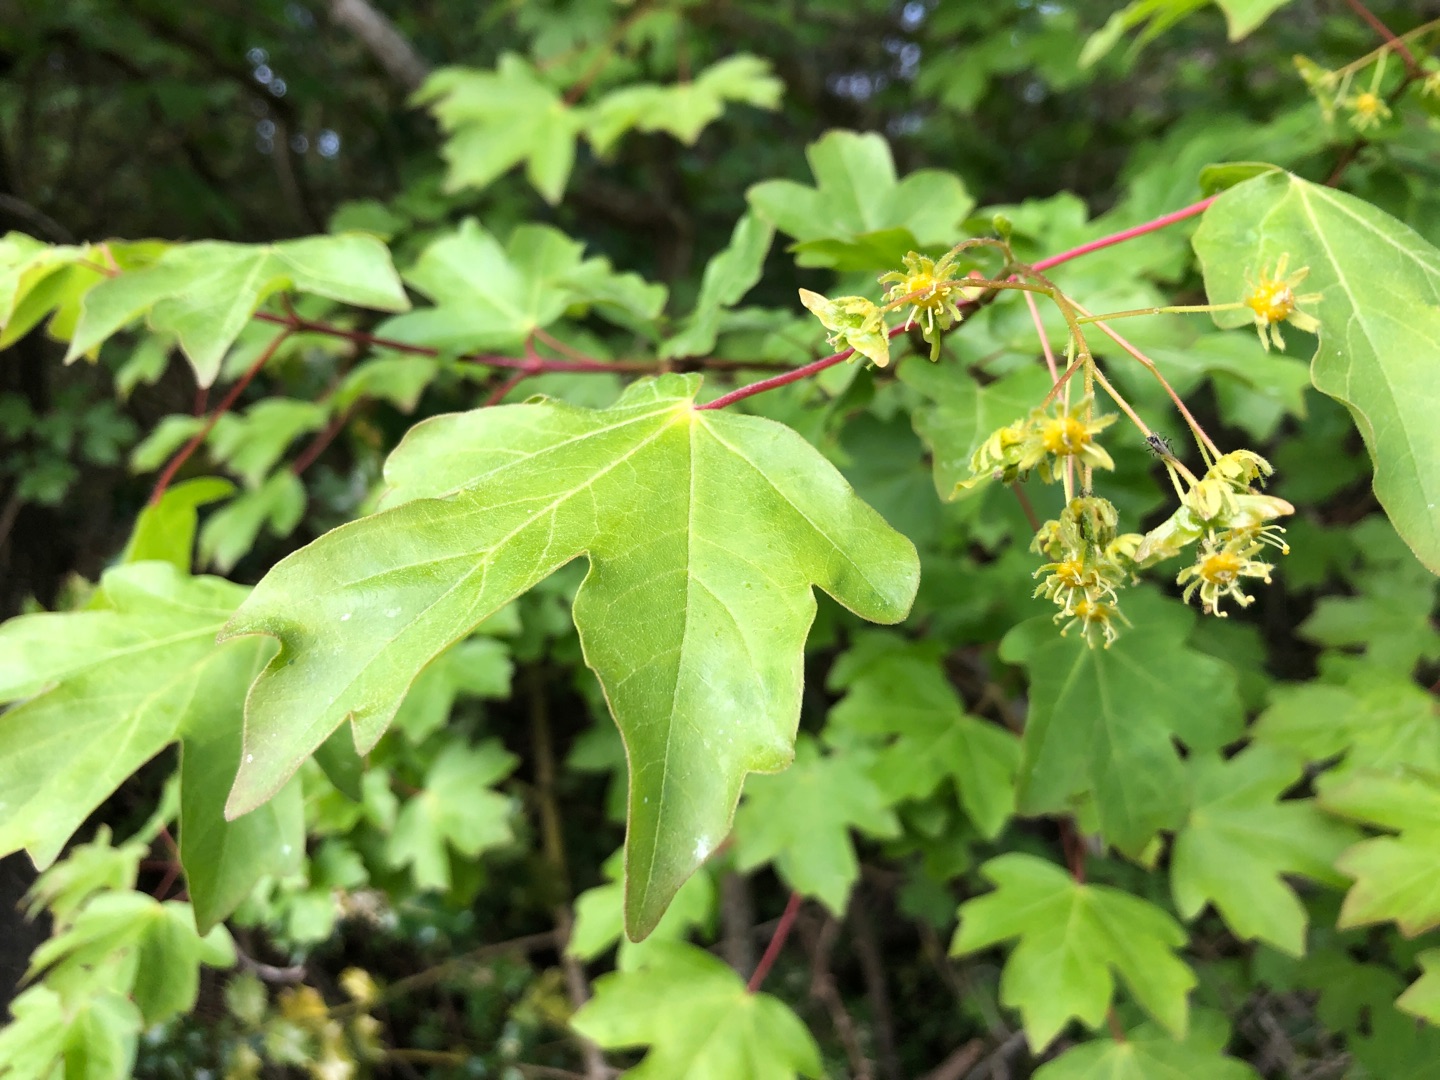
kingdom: Plantae
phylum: Tracheophyta
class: Magnoliopsida
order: Sapindales
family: Sapindaceae
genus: Acer
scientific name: Acer campestre
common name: Navr
